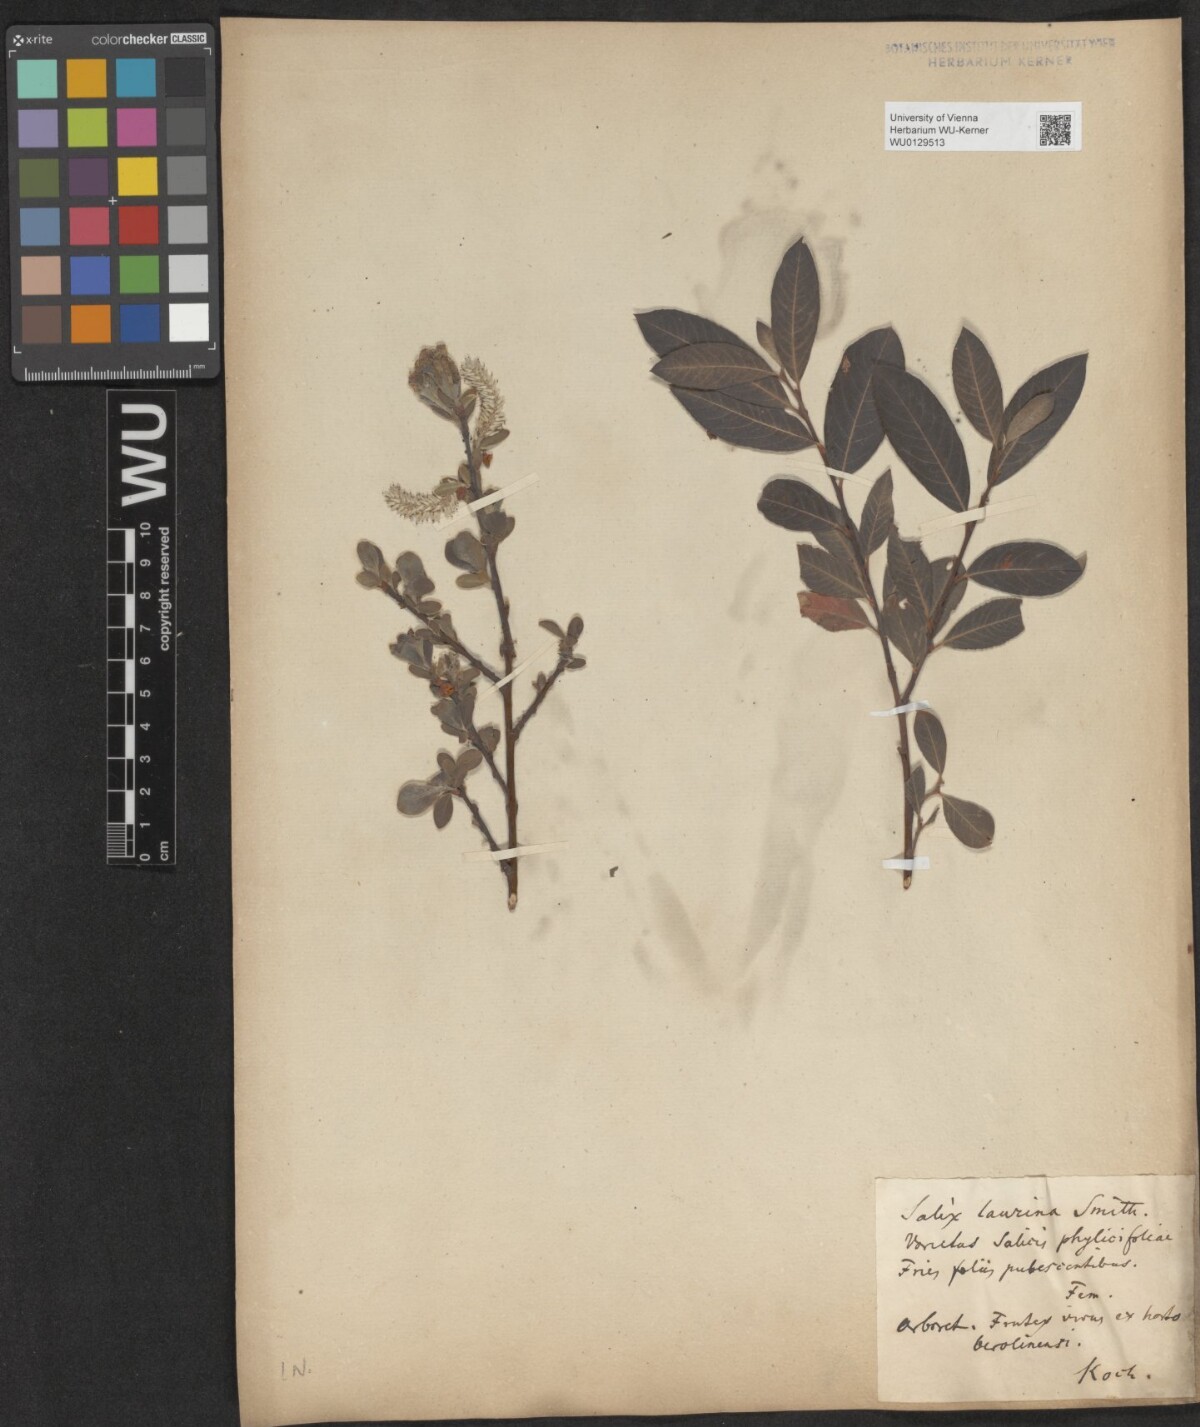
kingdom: Plantae
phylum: Tracheophyta
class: Magnoliopsida
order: Malpighiales
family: Salicaceae
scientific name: Salicaceae
